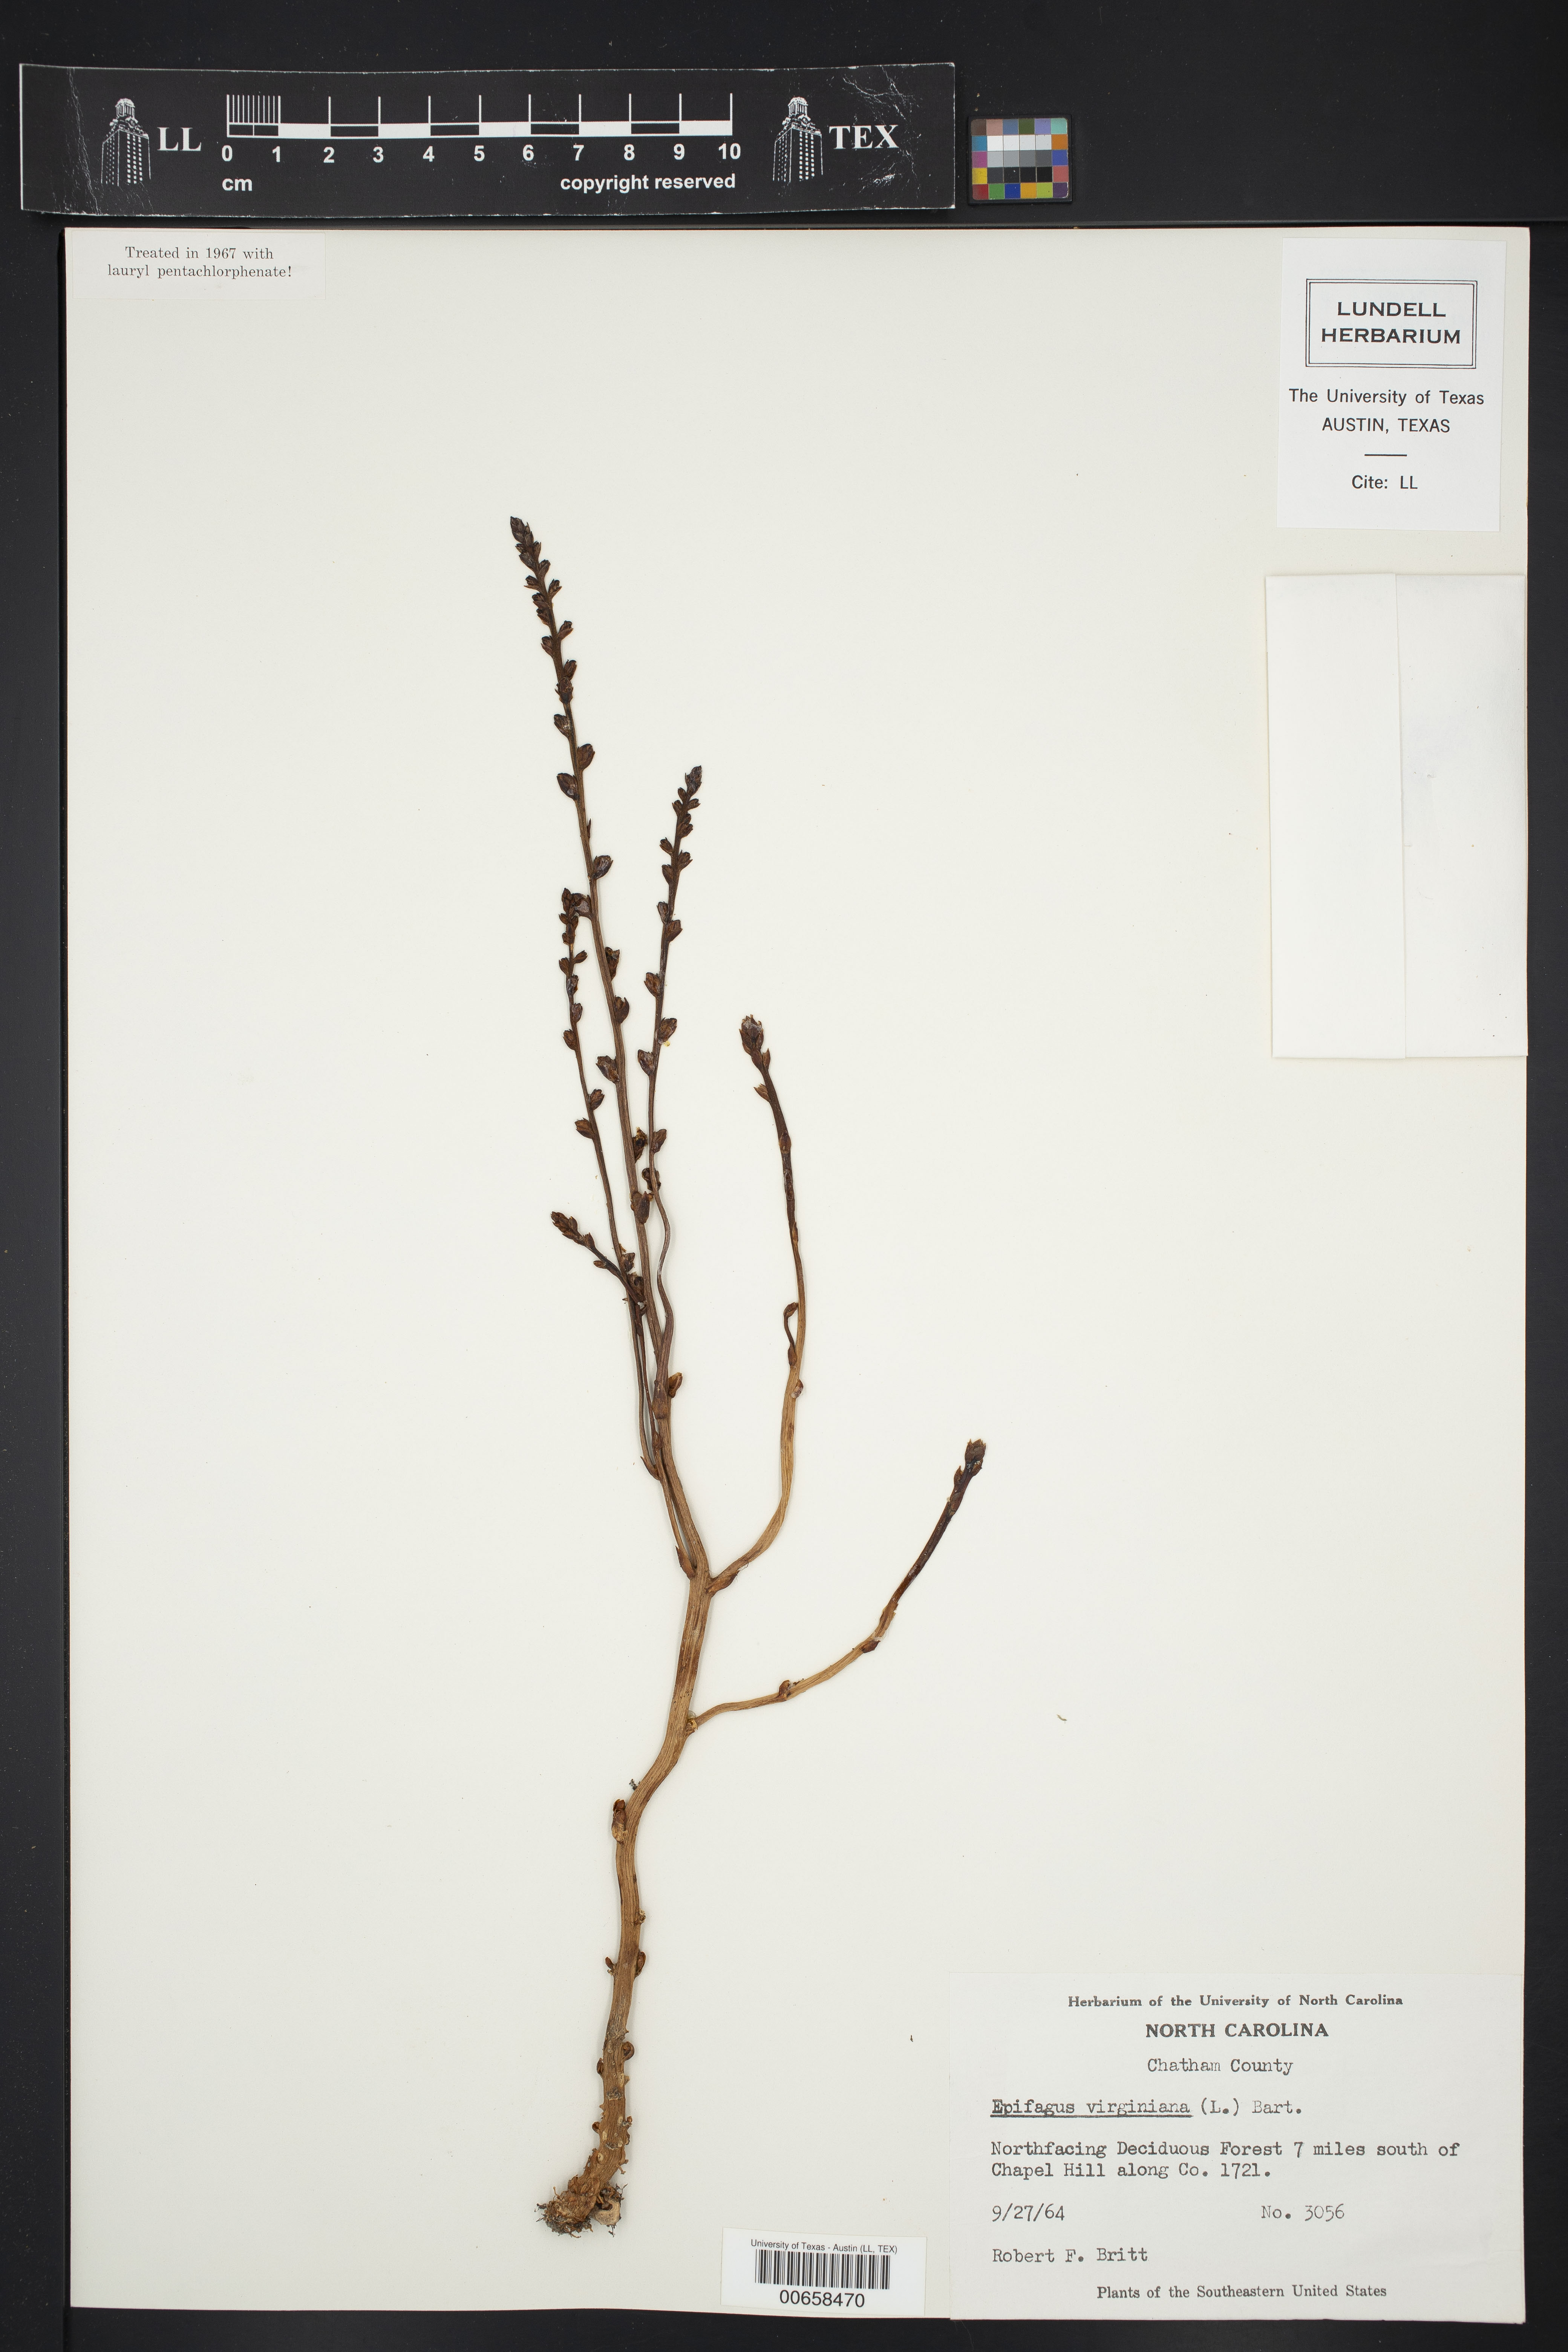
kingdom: Plantae
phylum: Tracheophyta
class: Magnoliopsida
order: Lamiales
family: Orobanchaceae
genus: Epifagus
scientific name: Epifagus virginiana
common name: Beechdrops
